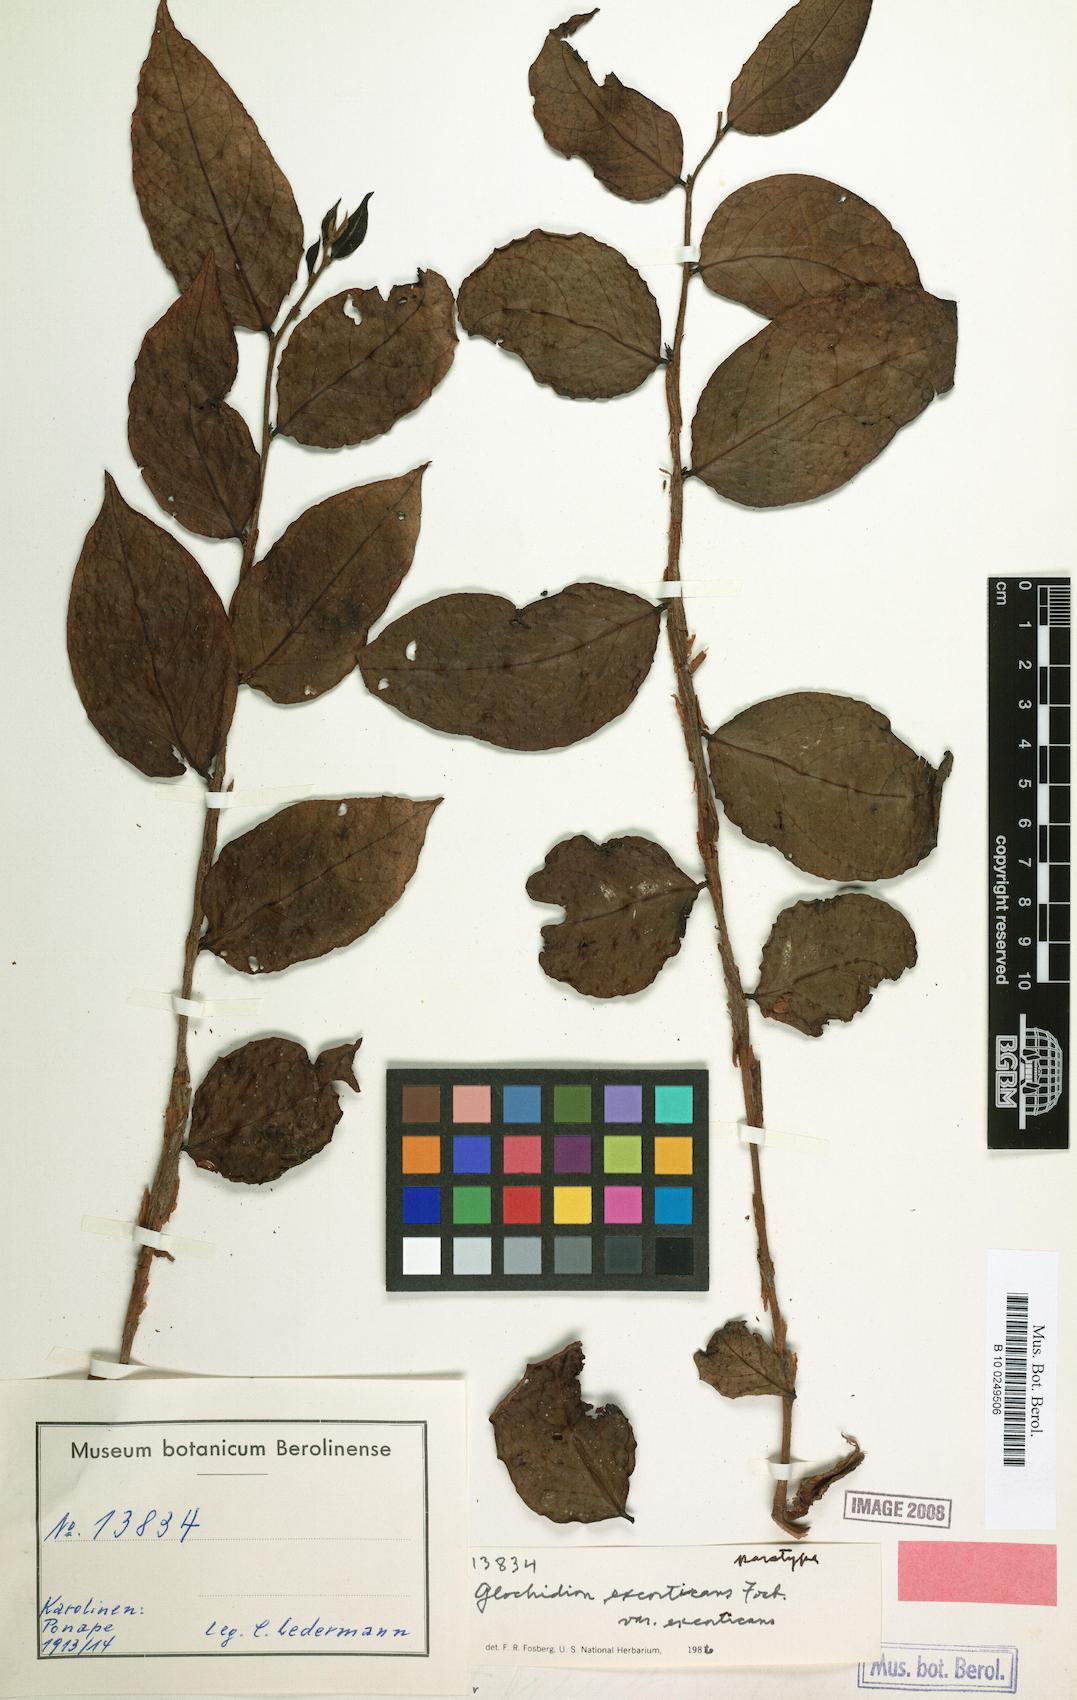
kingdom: Plantae
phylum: Tracheophyta
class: Magnoliopsida
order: Malpighiales
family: Phyllanthaceae
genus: Glochidion
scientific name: Glochidion puberulum
